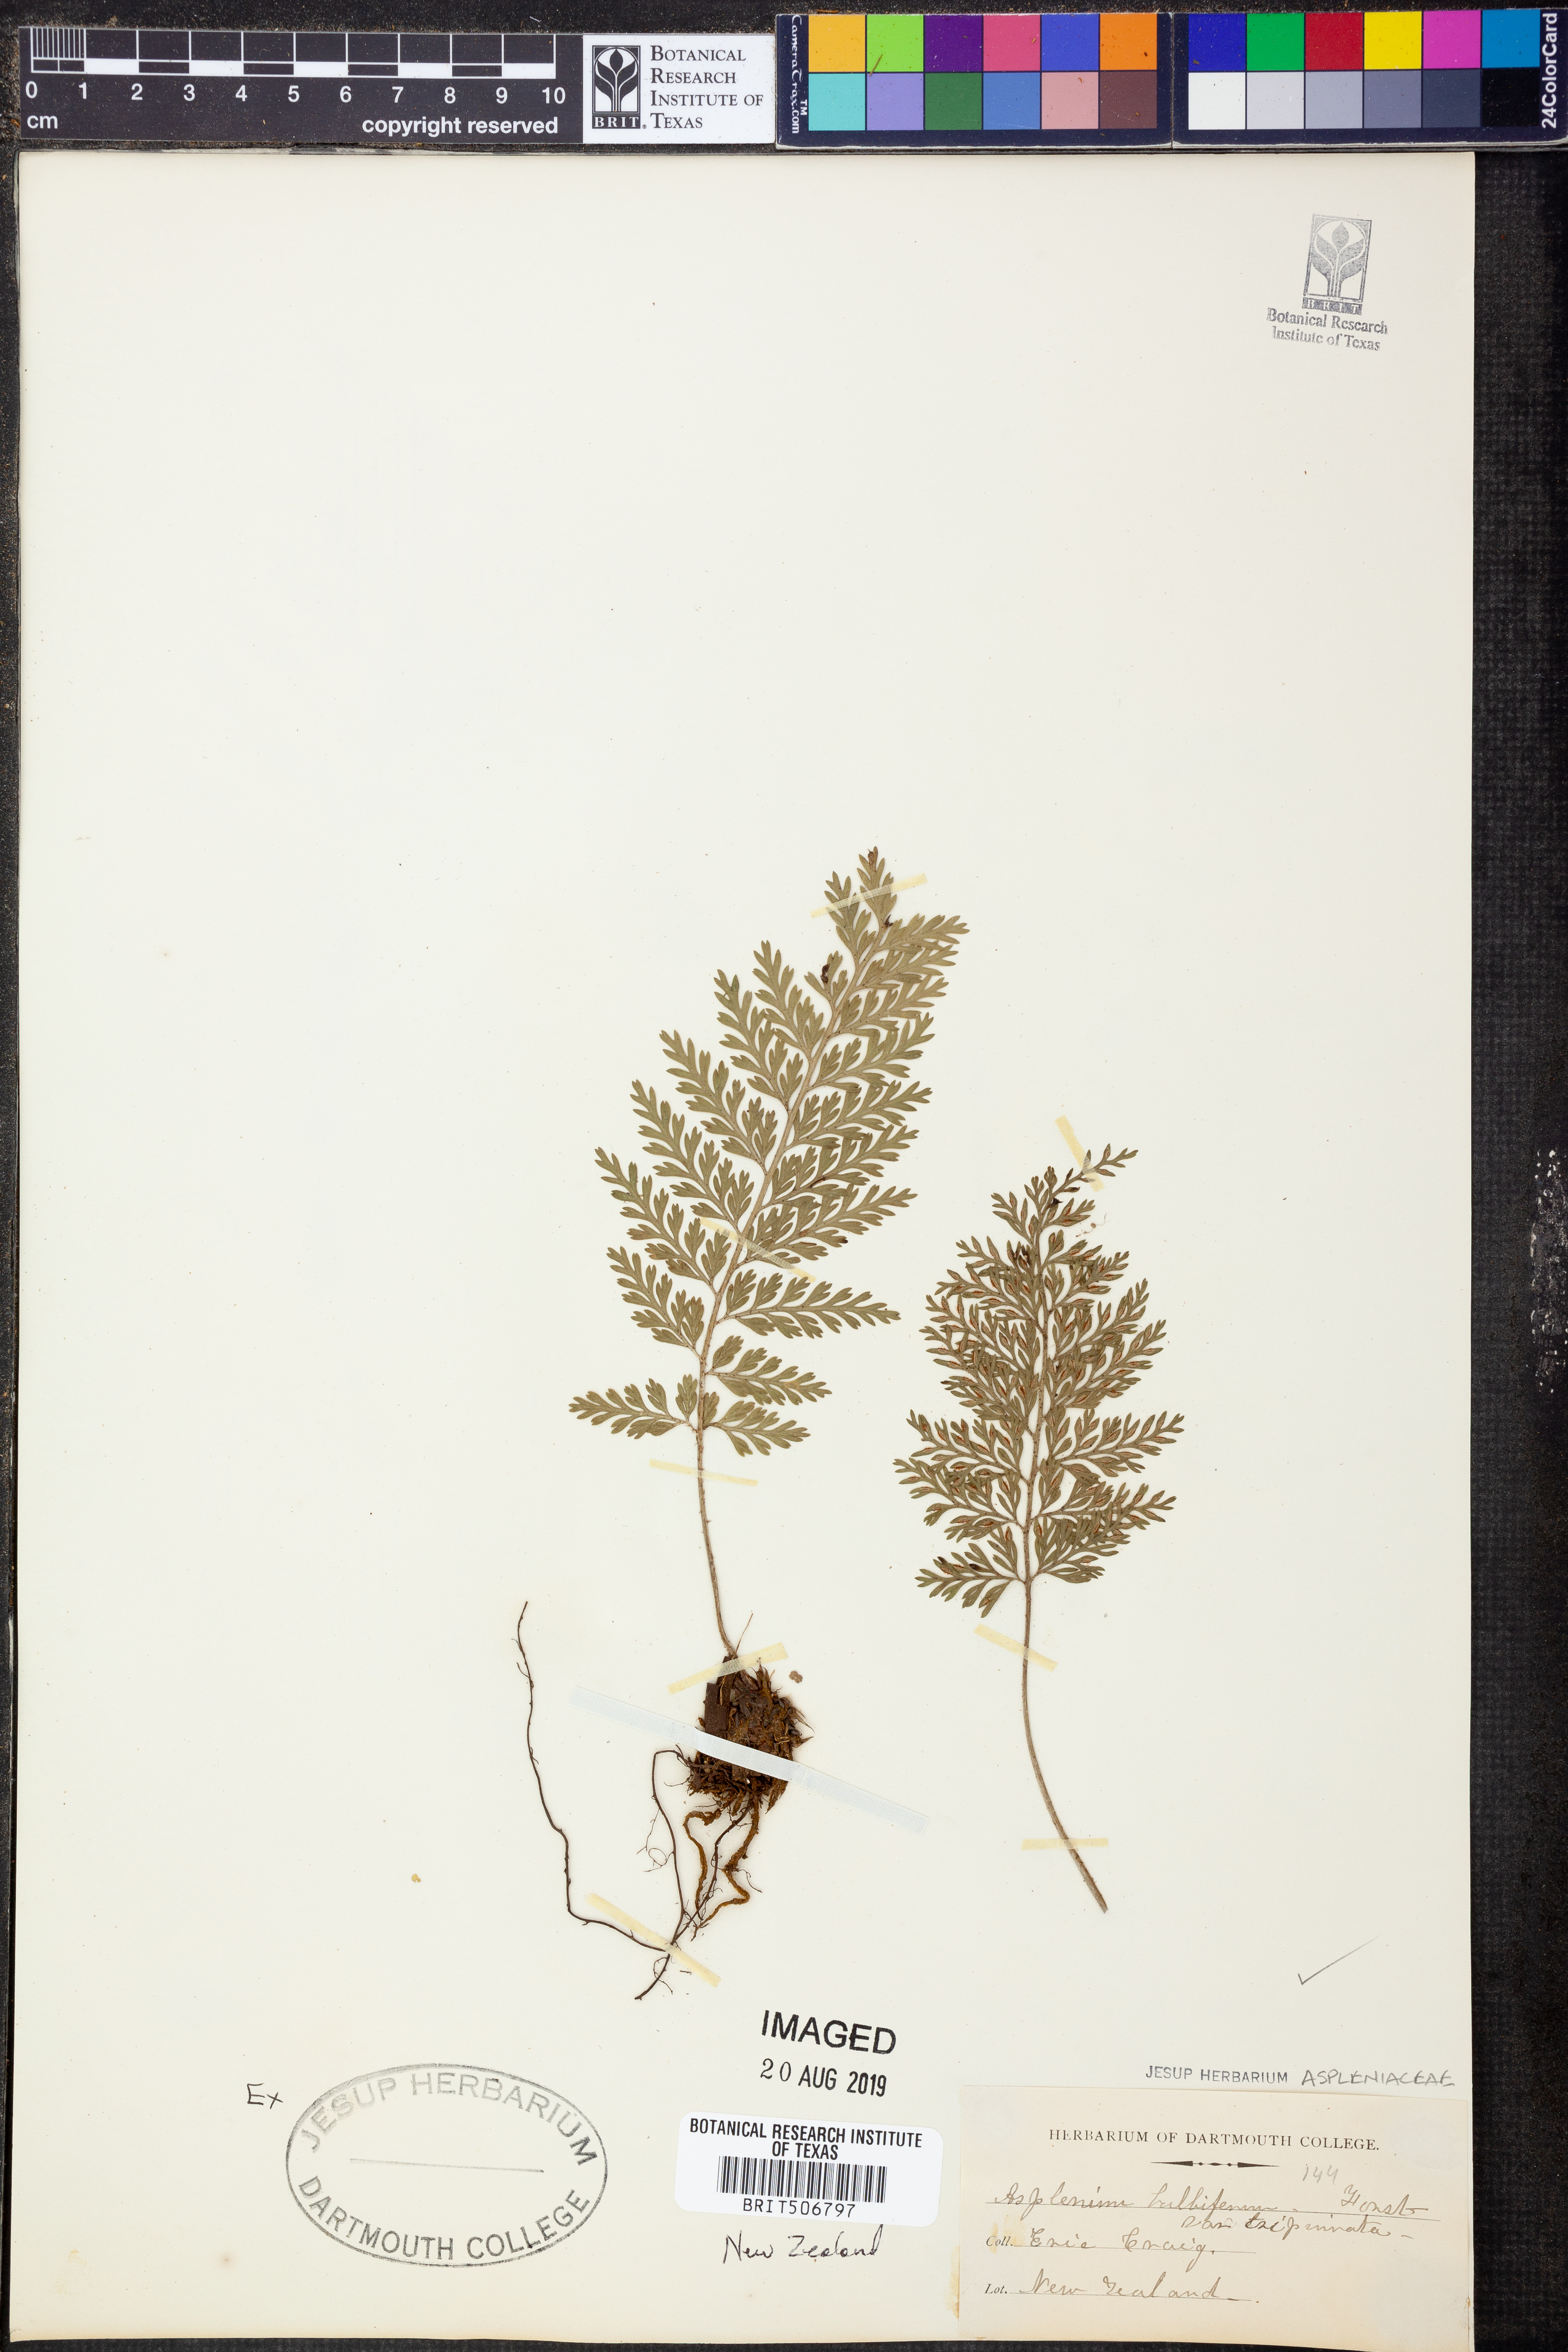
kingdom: Plantae
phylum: Tracheophyta
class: Polypodiopsida
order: Polypodiales
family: Aspleniaceae
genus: Asplenium
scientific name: Asplenium bulbiferum
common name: Mother fern
